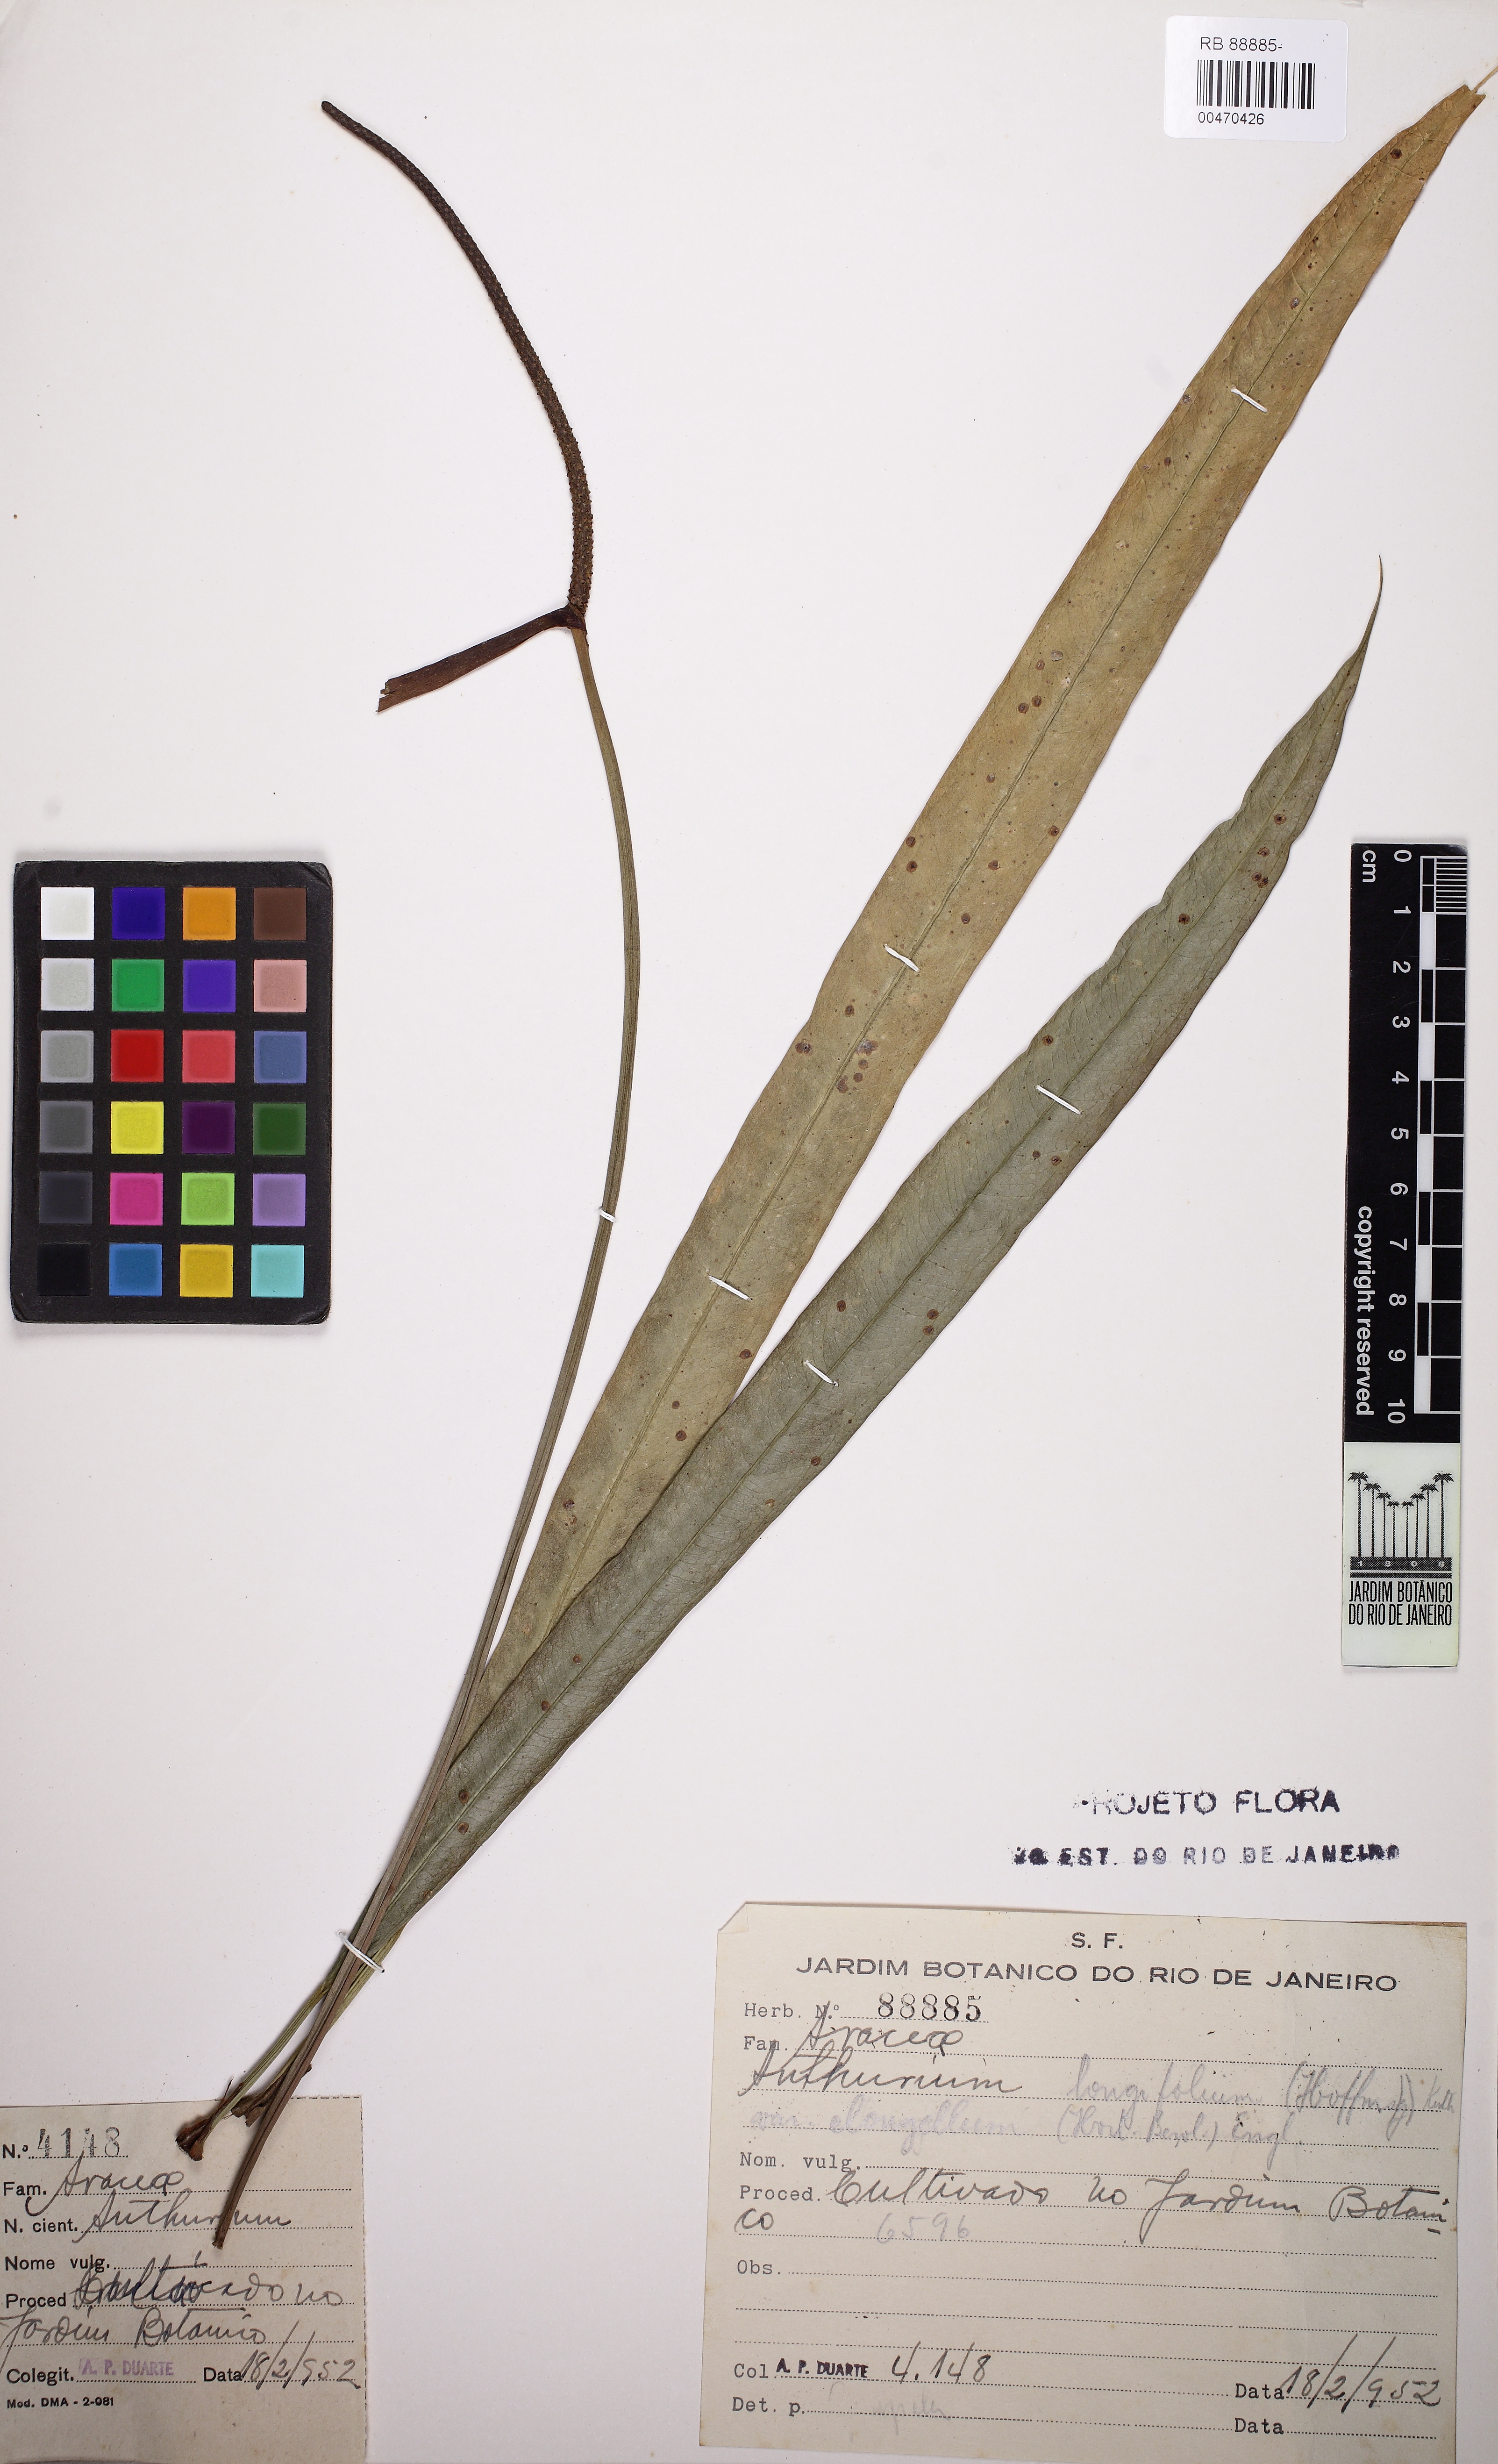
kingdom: Plantae
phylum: Tracheophyta
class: Liliopsida
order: Alismatales
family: Araceae
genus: Anthurium
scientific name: Anthurium longifolium
